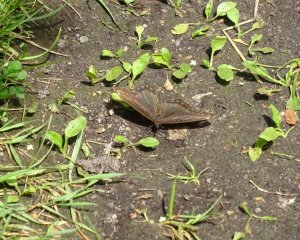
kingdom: Animalia
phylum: Arthropoda
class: Insecta
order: Lepidoptera
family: Nymphalidae
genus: Limenitis
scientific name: Limenitis astyanax
